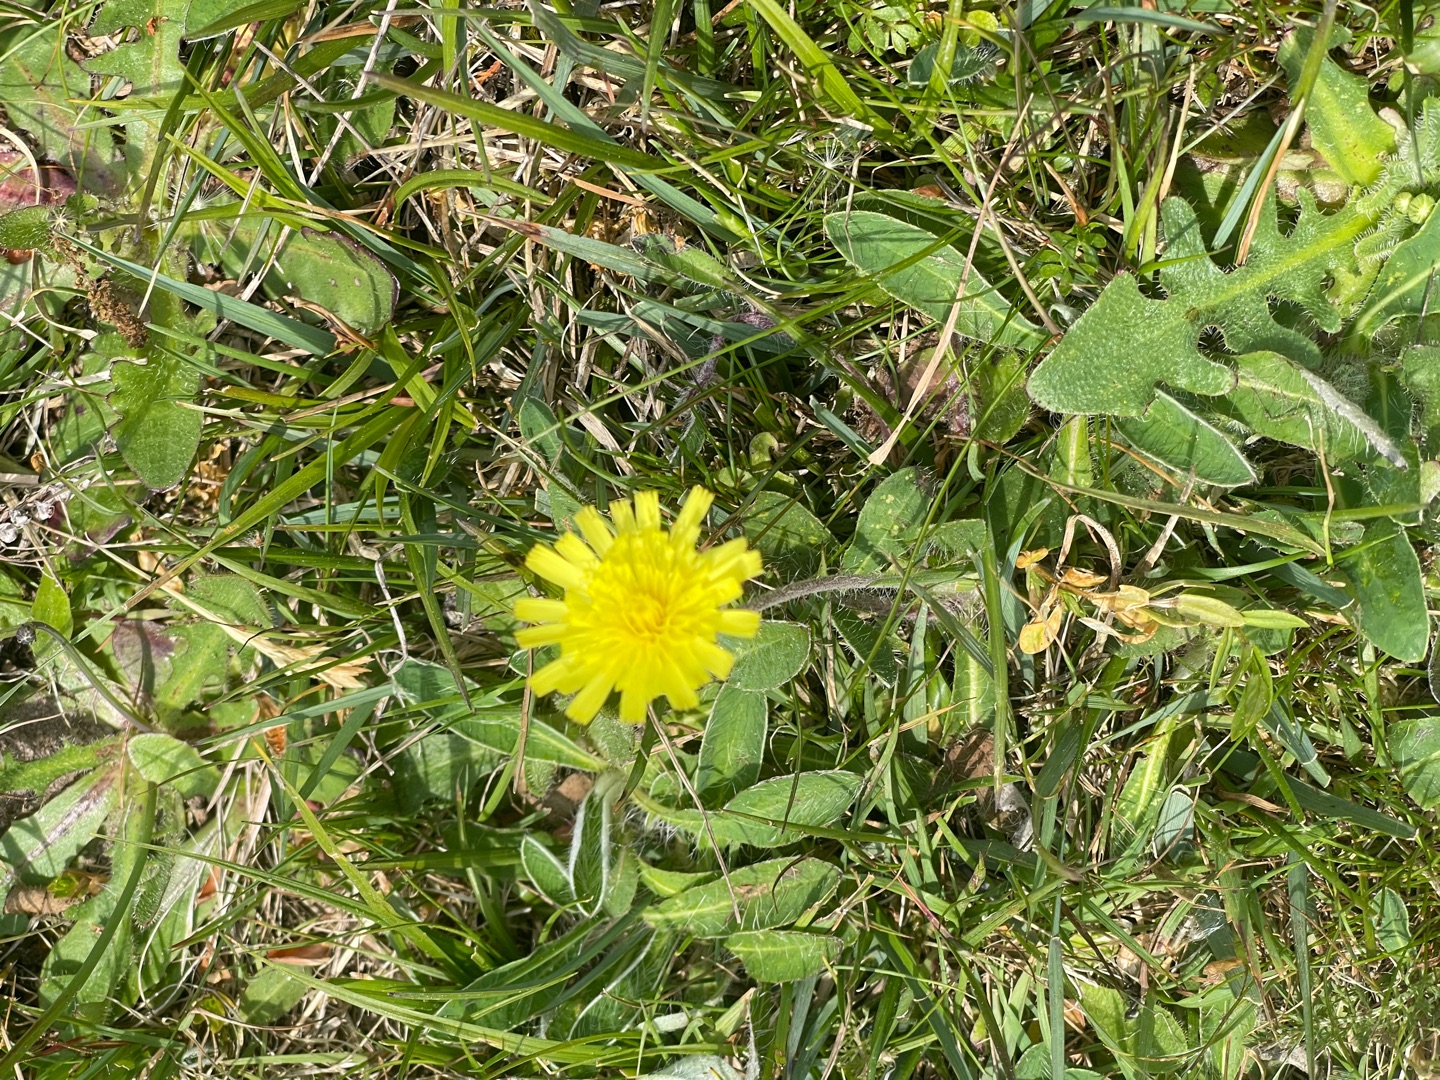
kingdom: Plantae
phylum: Tracheophyta
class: Magnoliopsida
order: Asterales
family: Asteraceae
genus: Pilosella
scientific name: Pilosella officinarum
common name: Håret høgeurt
